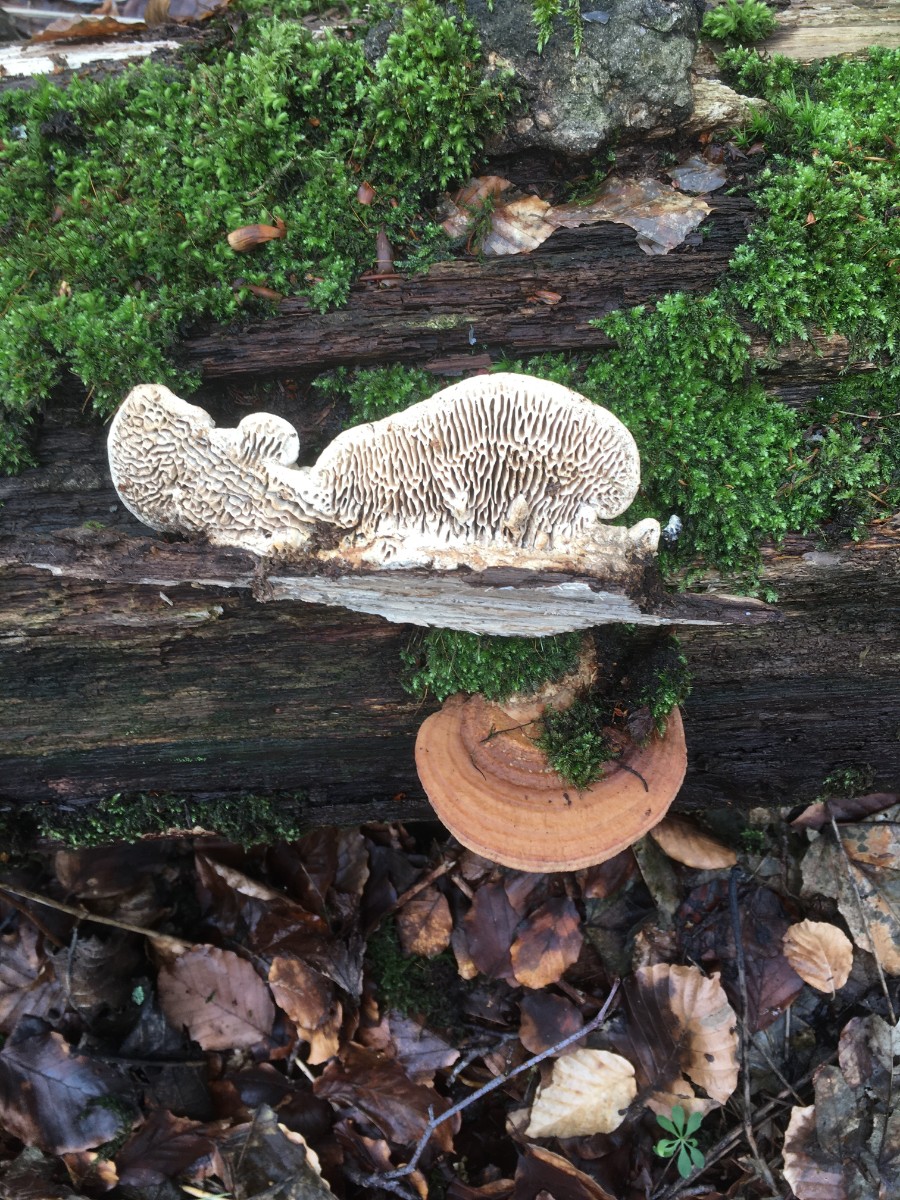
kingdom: Fungi
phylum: Basidiomycota
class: Agaricomycetes
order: Polyporales
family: Fomitopsidaceae
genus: Daedalea
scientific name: Daedalea quercina
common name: ege-labyrintsvamp
